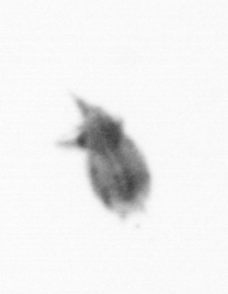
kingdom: Animalia
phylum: Arthropoda
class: Copepoda
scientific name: Copepoda
